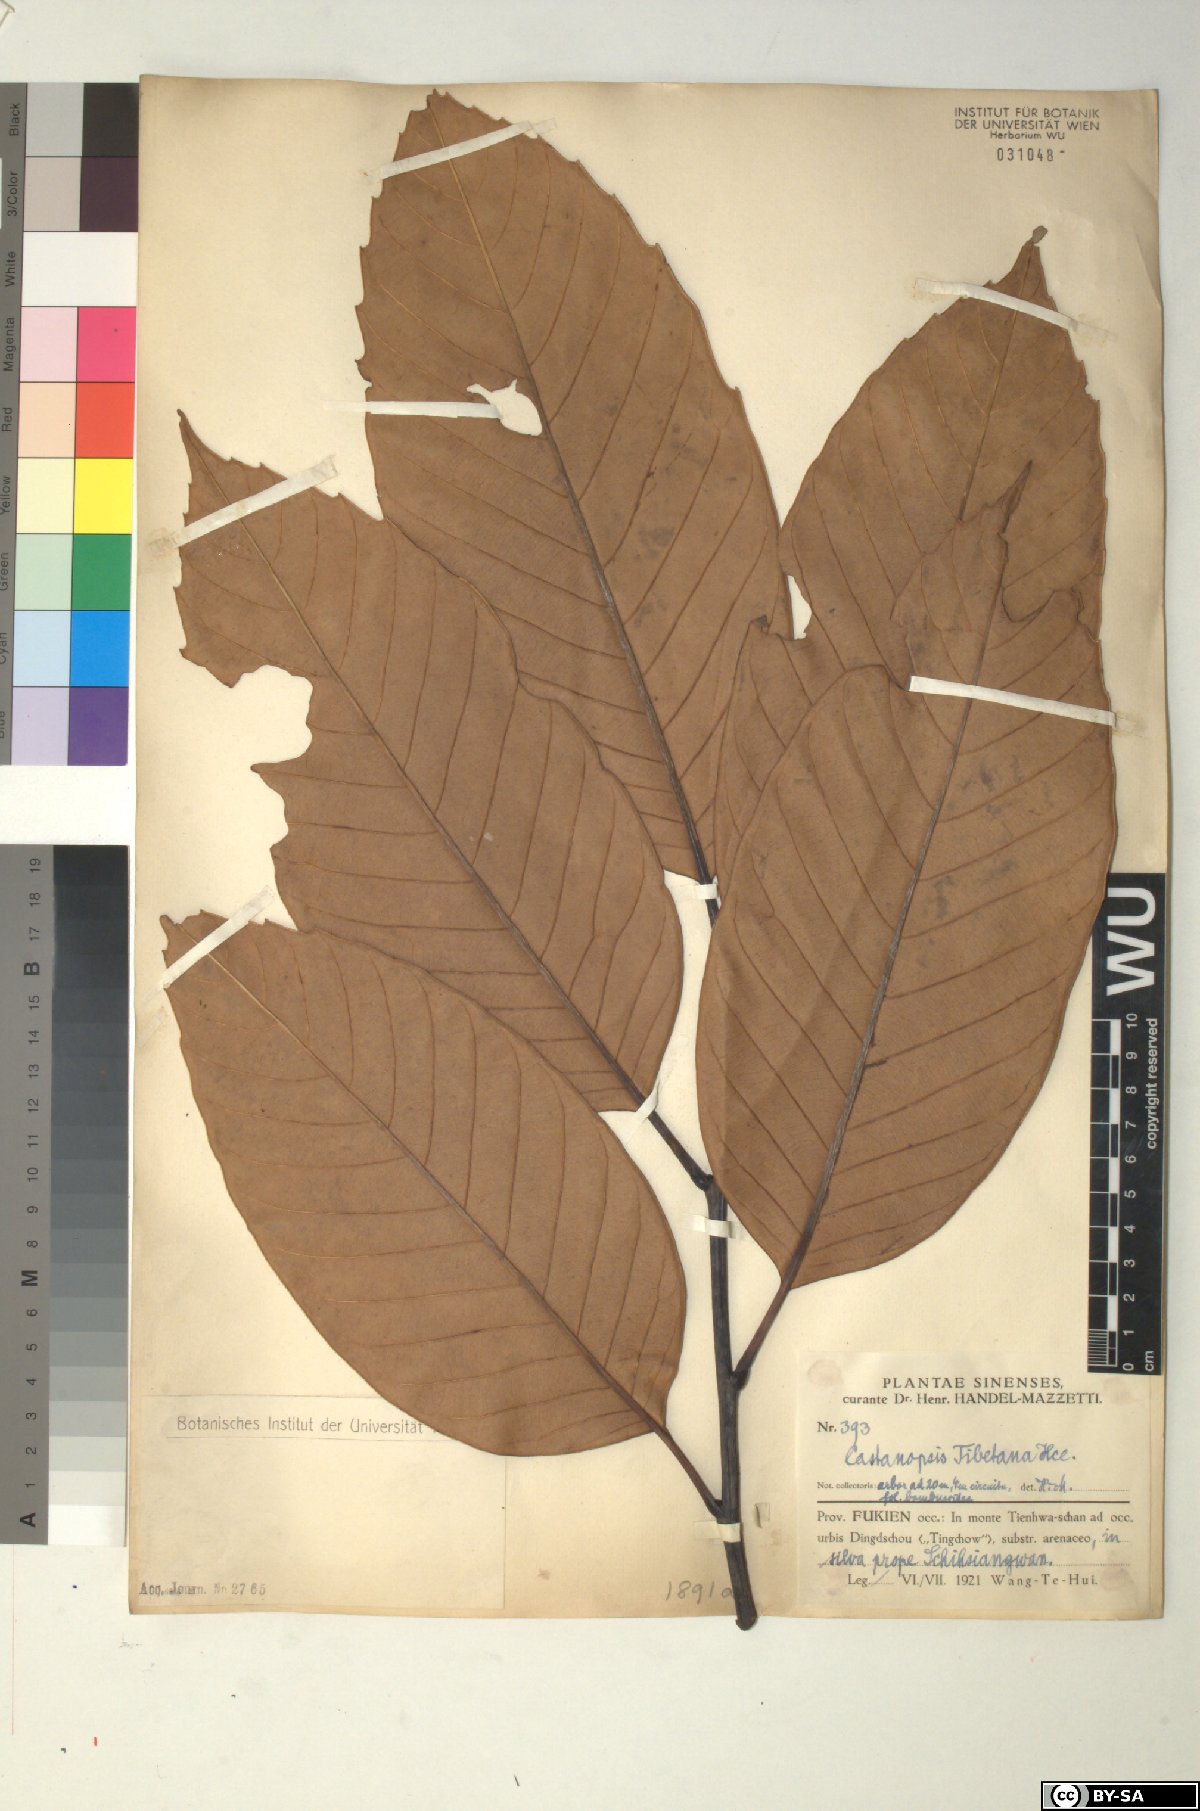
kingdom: Plantae
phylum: Tracheophyta
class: Magnoliopsida
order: Fagales
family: Fagaceae
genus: Castanopsis
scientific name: Castanopsis tibetana
